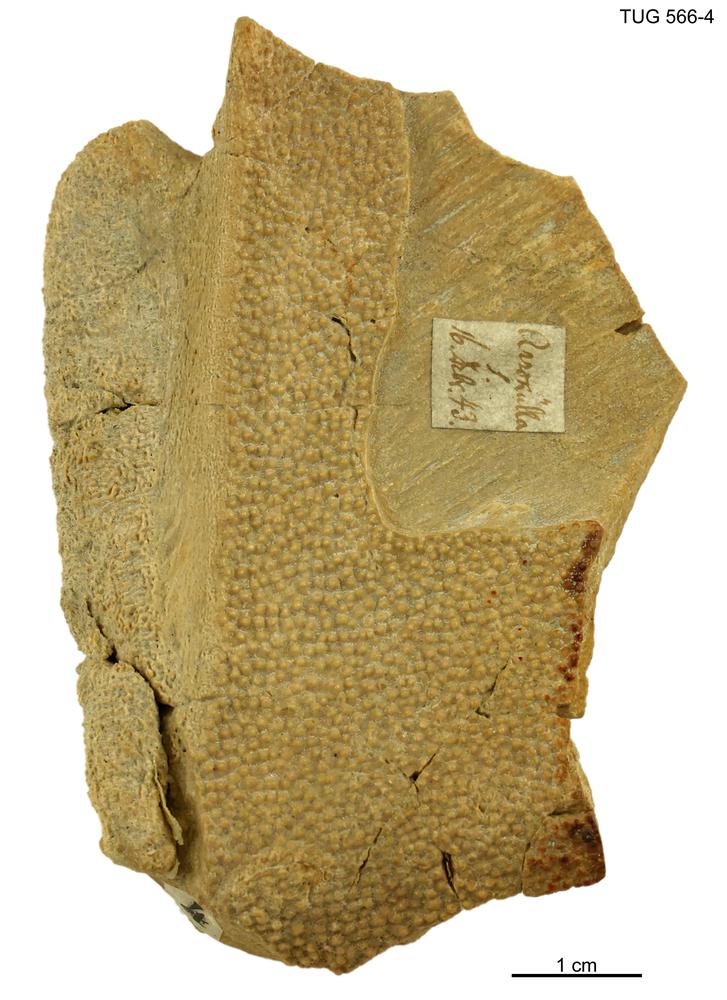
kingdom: Animalia
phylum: Chordata
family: Homostiidae
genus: Homostius
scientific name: Homostius
